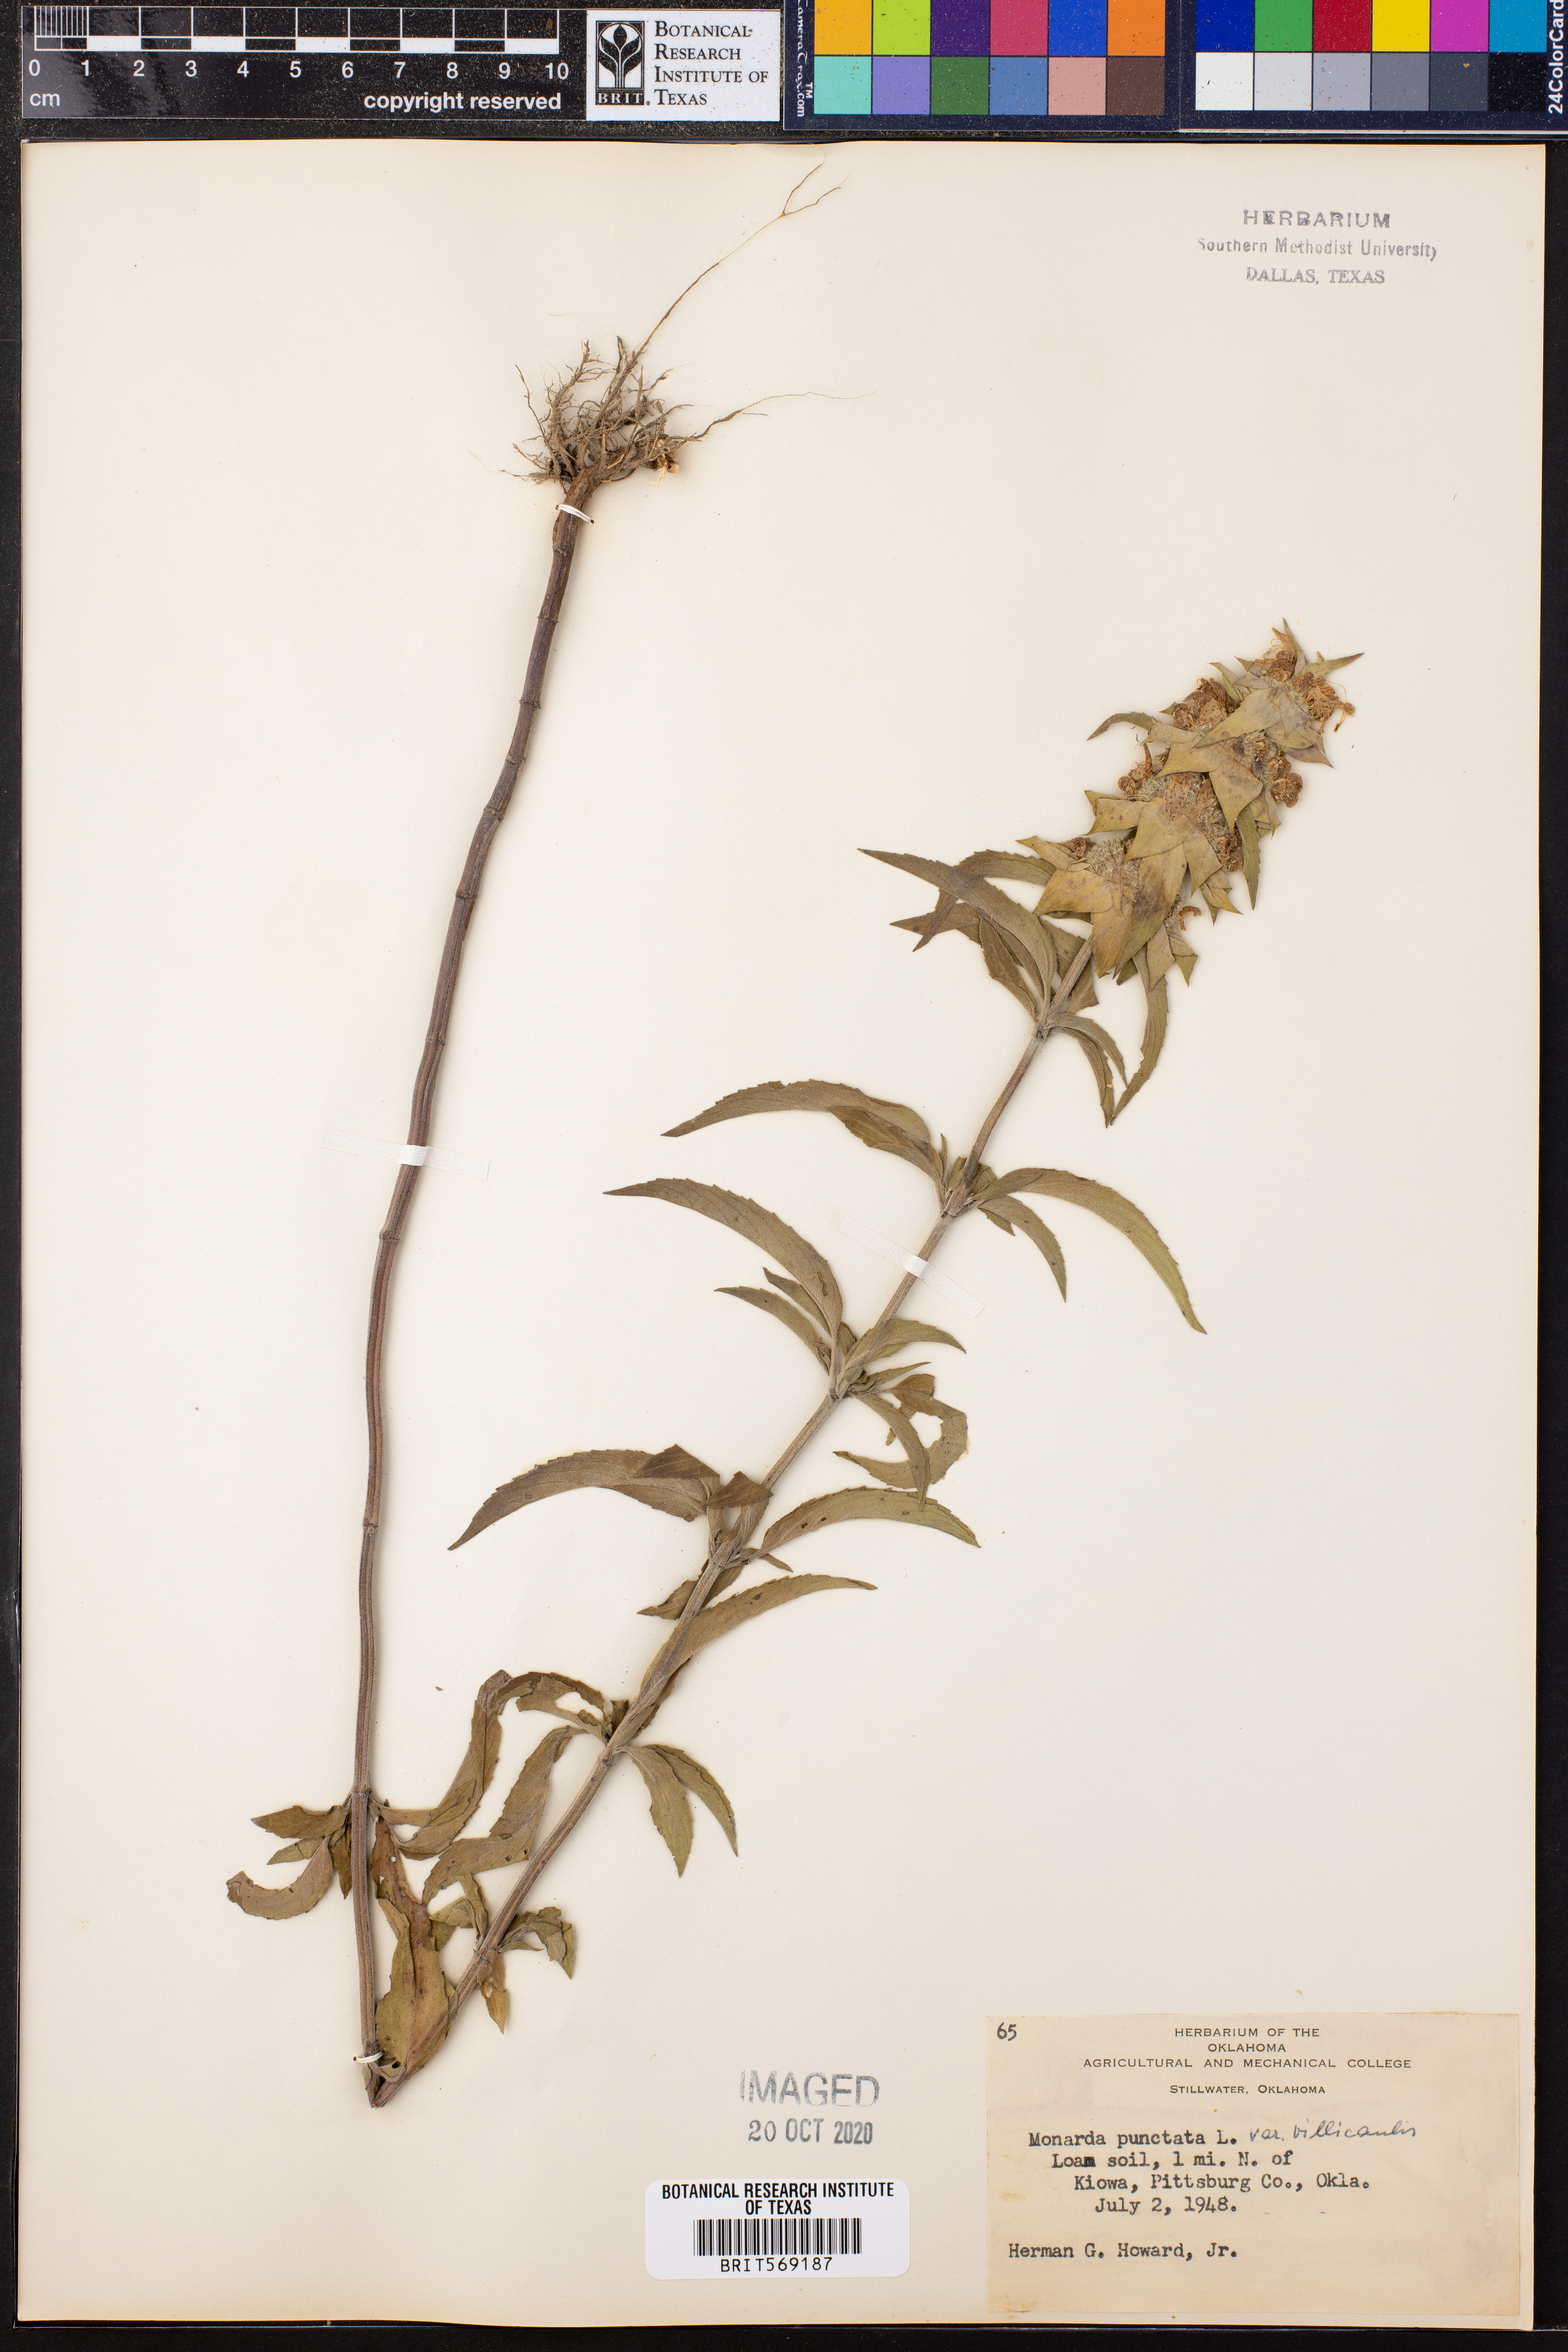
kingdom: Plantae
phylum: Tracheophyta
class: Magnoliopsida
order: Lamiales
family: Lamiaceae
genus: Monarda
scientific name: Monarda punctata
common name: Dotted monarda
